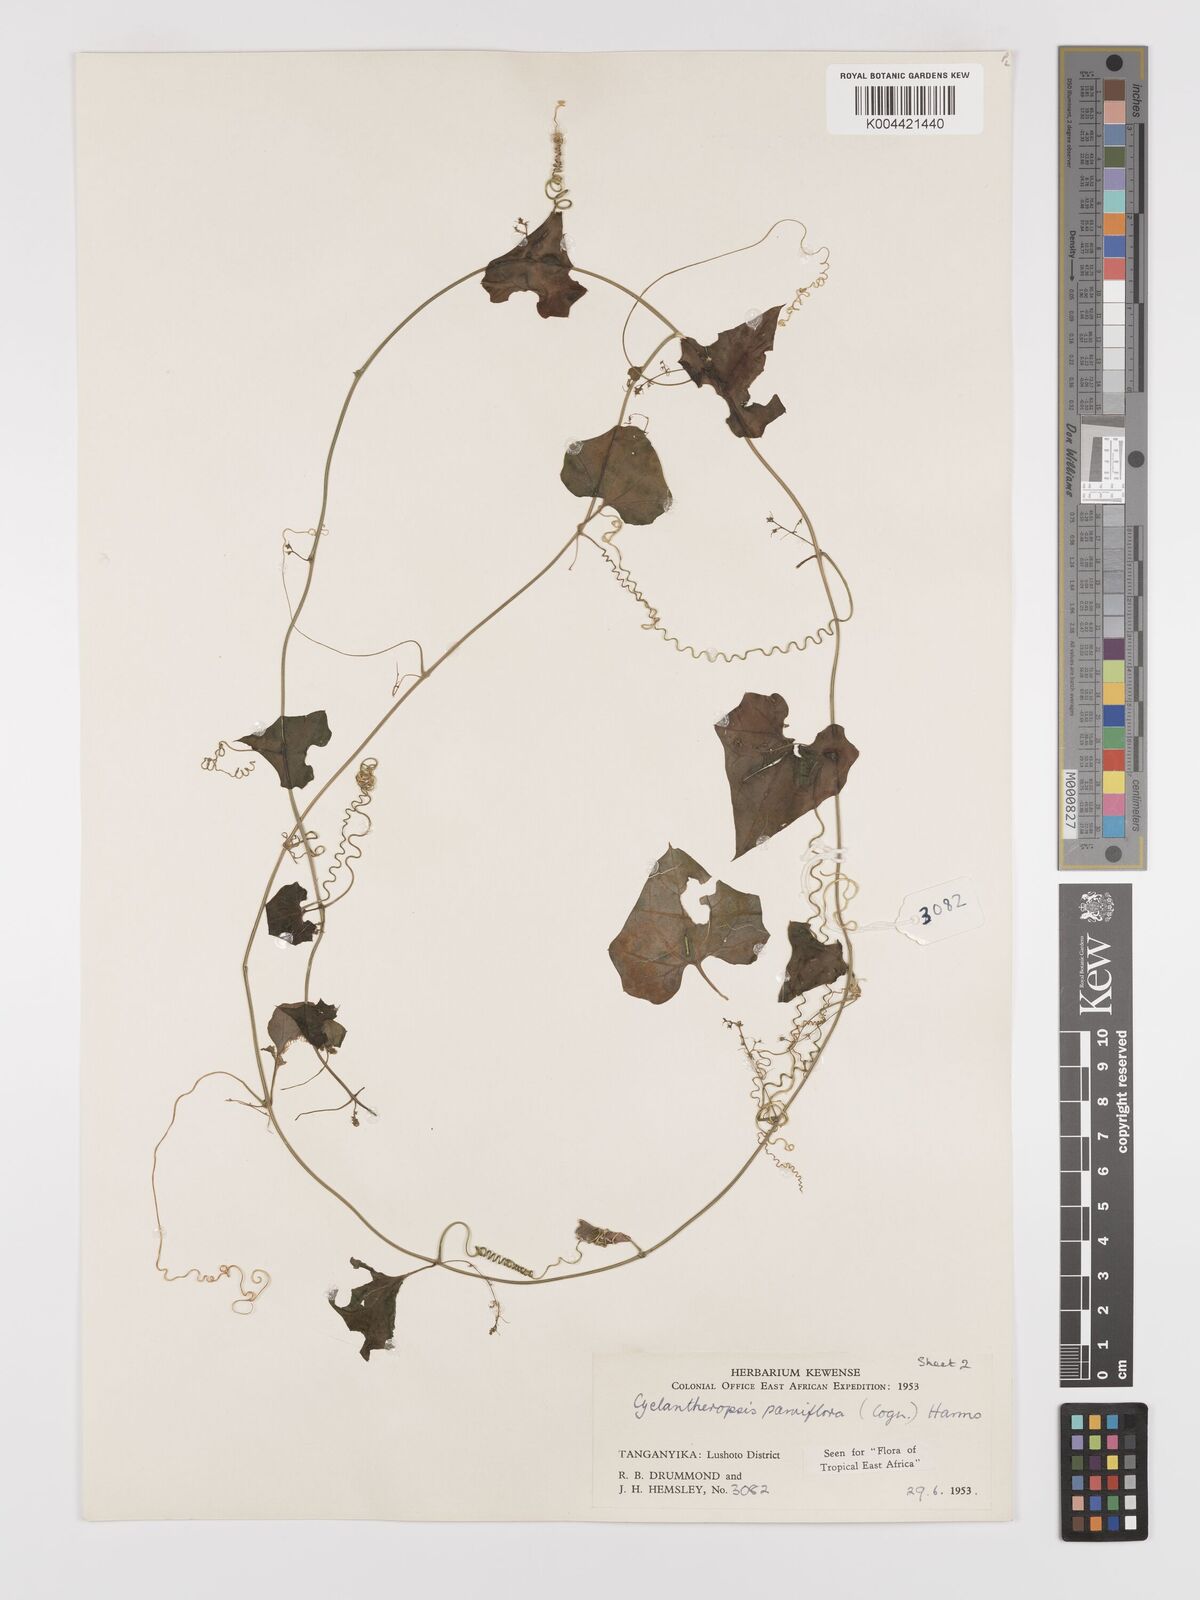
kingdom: Plantae
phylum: Tracheophyta
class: Magnoliopsida
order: Cucurbitales
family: Cucurbitaceae
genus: Cyclantheropsis
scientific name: Cyclantheropsis parviflora
